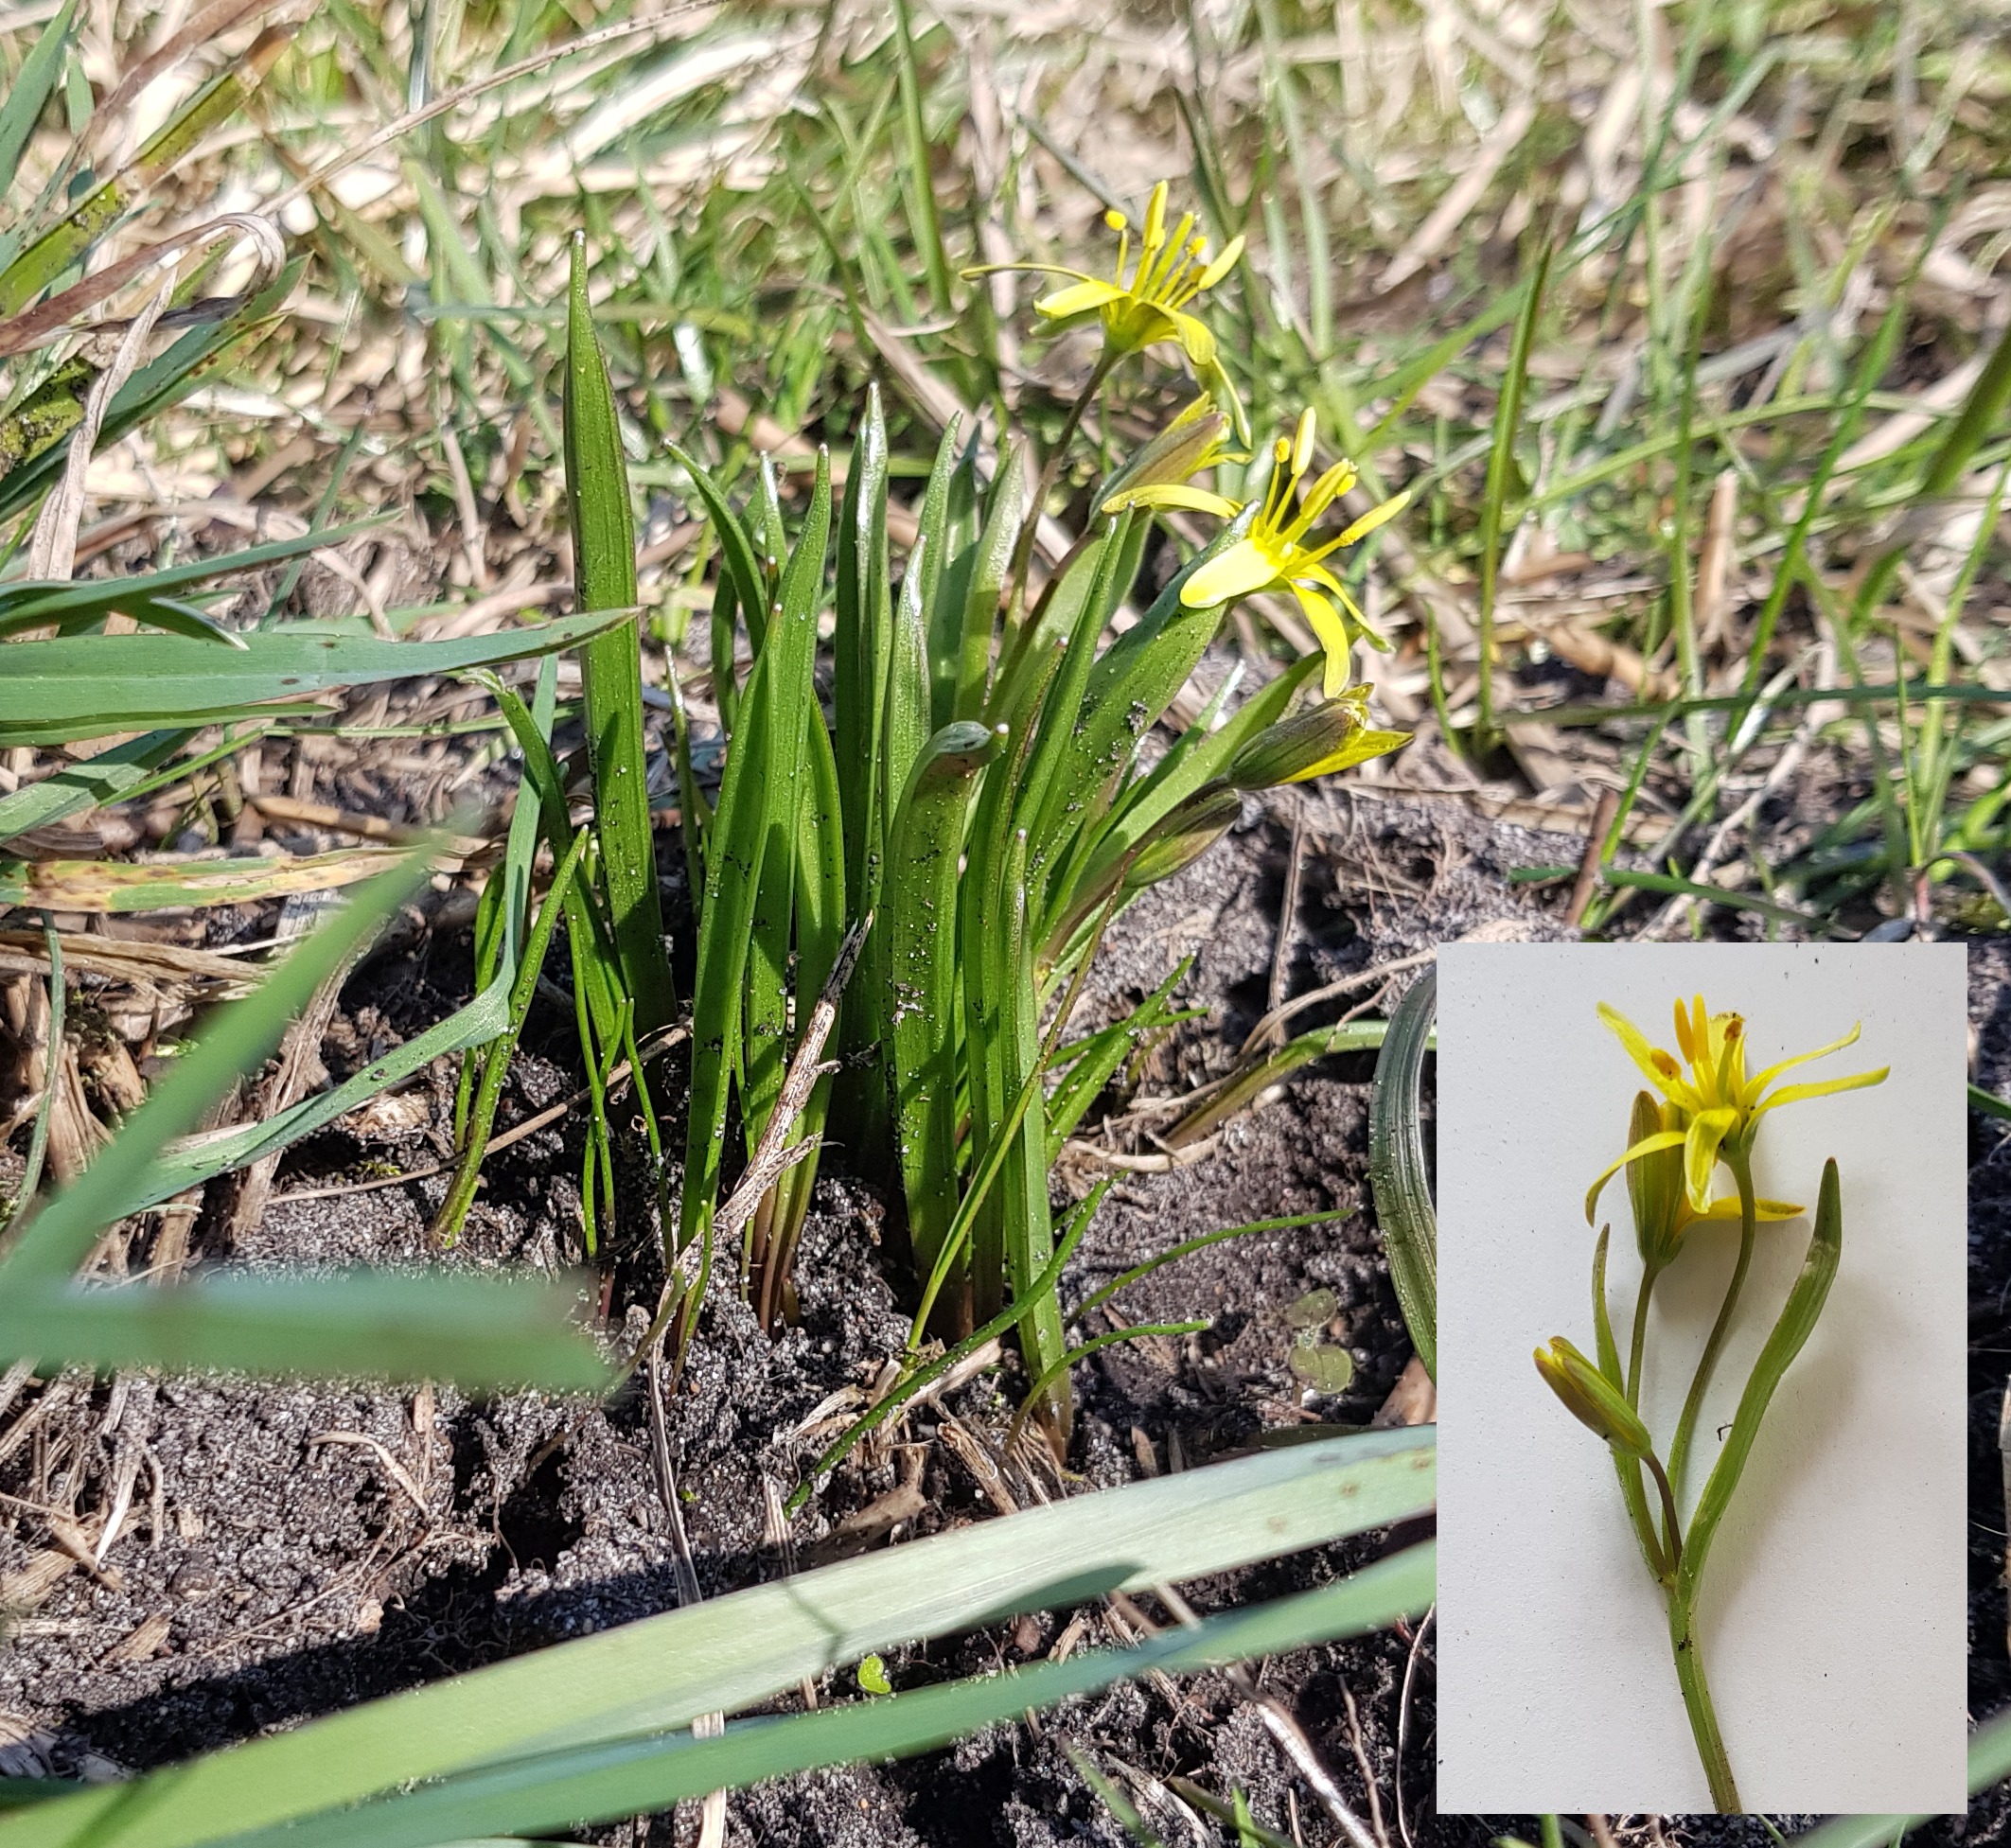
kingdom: Plantae
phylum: Tracheophyta
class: Liliopsida
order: Liliales
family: Liliaceae
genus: Gagea
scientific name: Gagea lutea
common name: Almindelig guldstjerne
